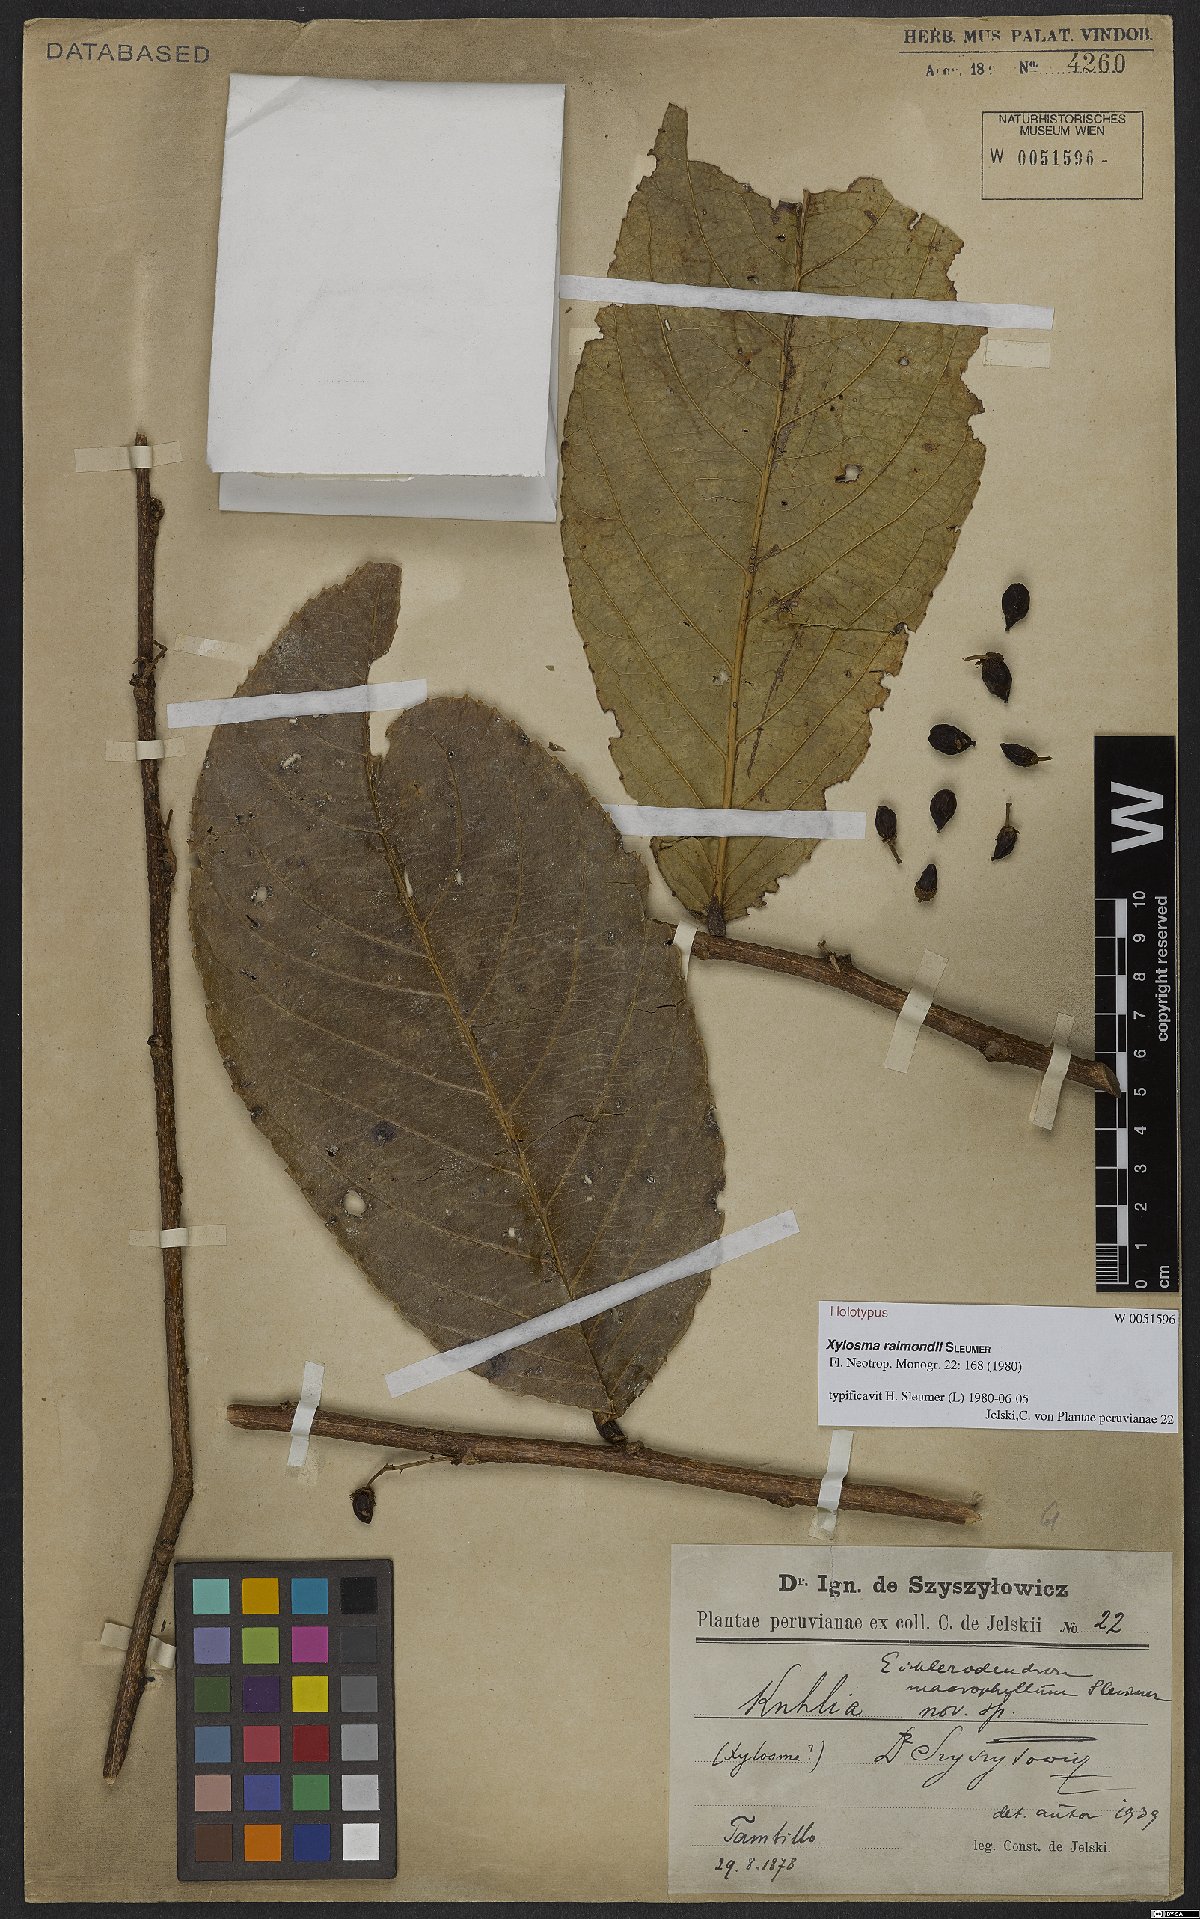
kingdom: Plantae
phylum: Tracheophyta
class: Magnoliopsida
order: Malpighiales
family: Salicaceae
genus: Xylosma
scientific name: Xylosma raimondii
